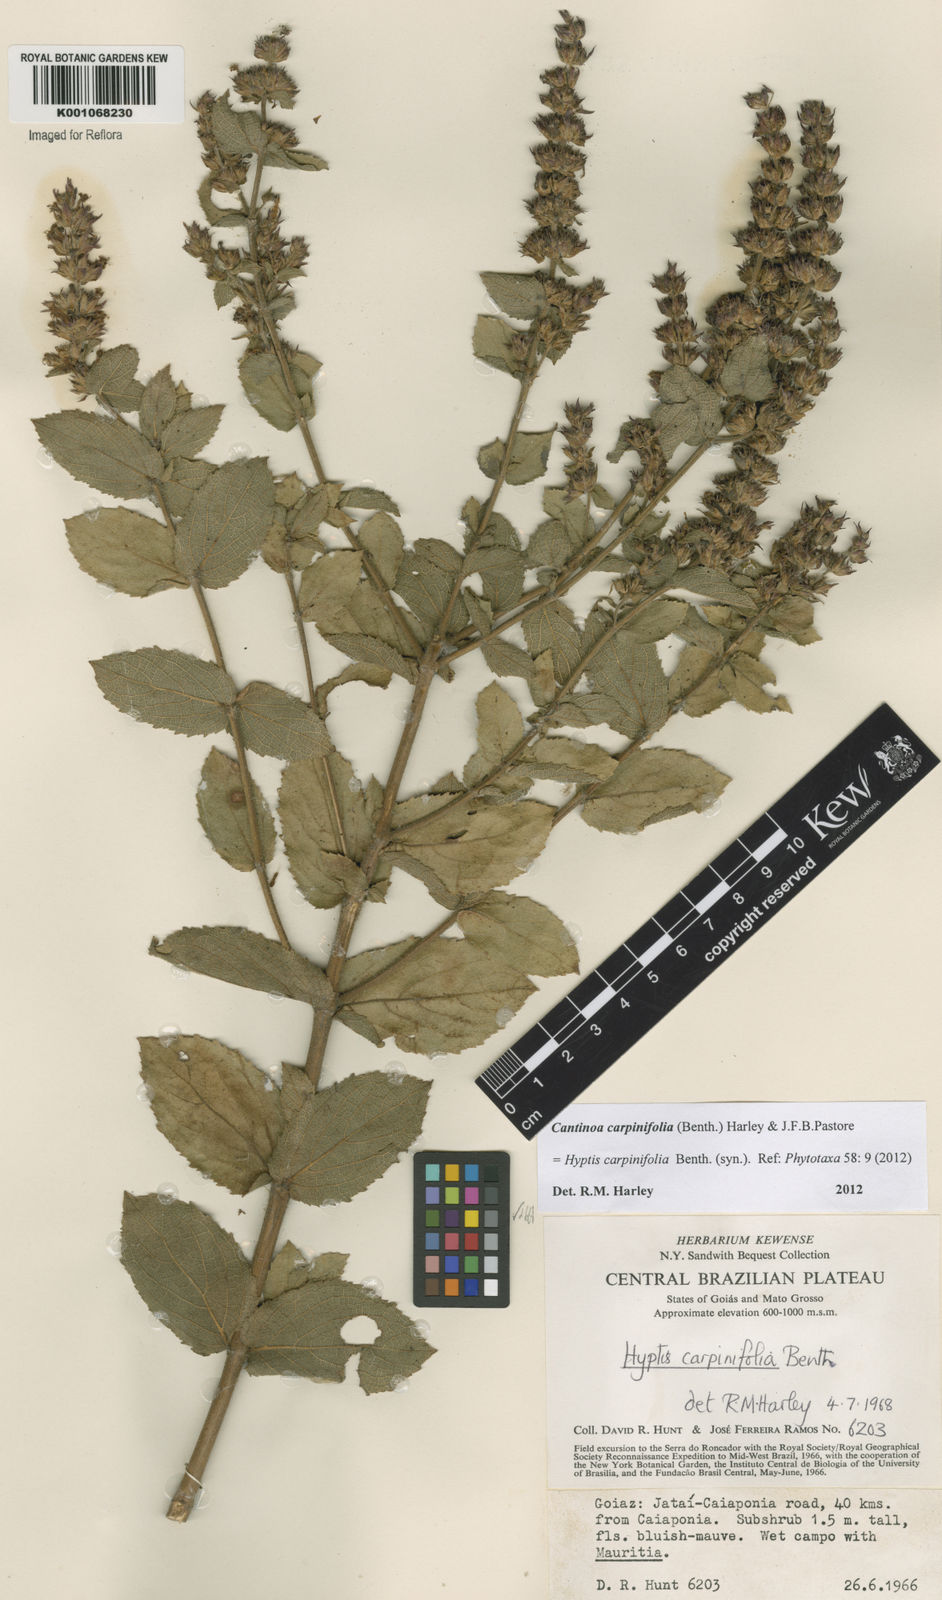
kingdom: Plantae
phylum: Tracheophyta
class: Magnoliopsida
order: Lamiales
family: Lamiaceae
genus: Cantinoa
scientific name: Cantinoa carpinifolia
